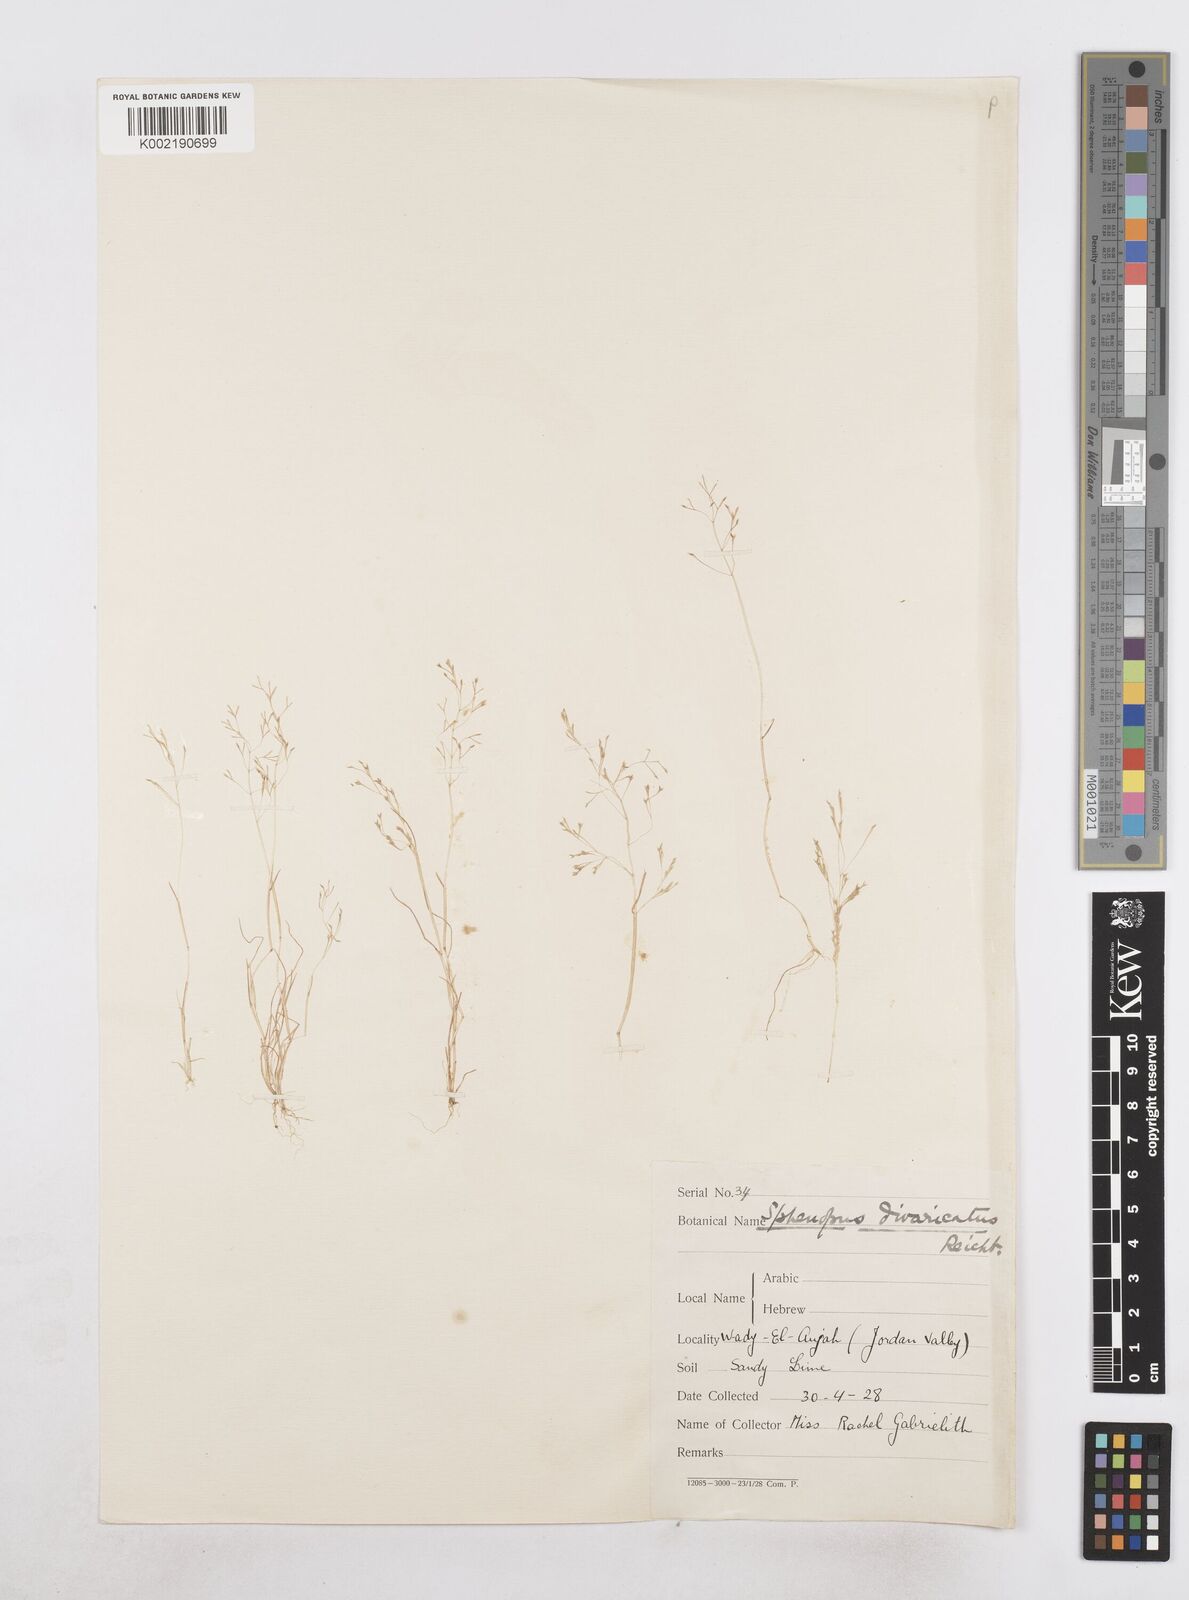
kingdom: Plantae
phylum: Tracheophyta
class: Liliopsida
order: Poales
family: Poaceae
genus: Sphenopus
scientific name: Sphenopus divaricatus
